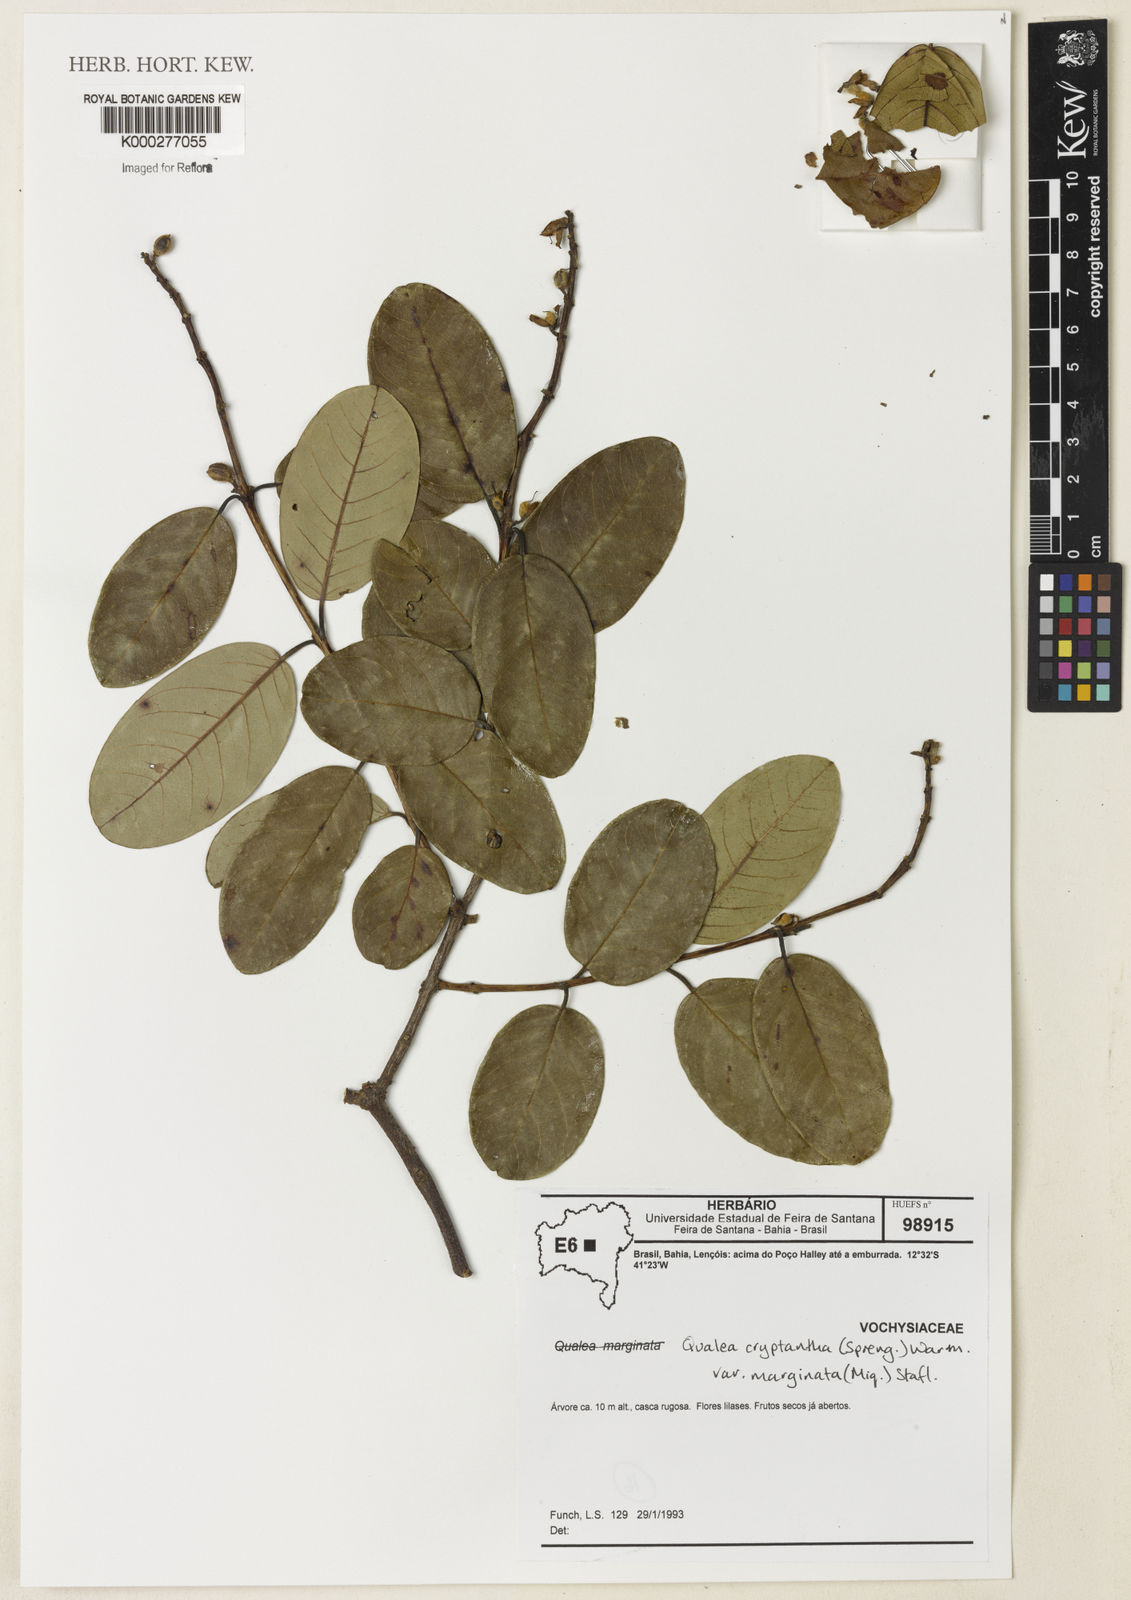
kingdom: Plantae
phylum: Tracheophyta
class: Magnoliopsida
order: Myrtales
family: Vochysiaceae
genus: Qualea
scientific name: Qualea cryptantha
